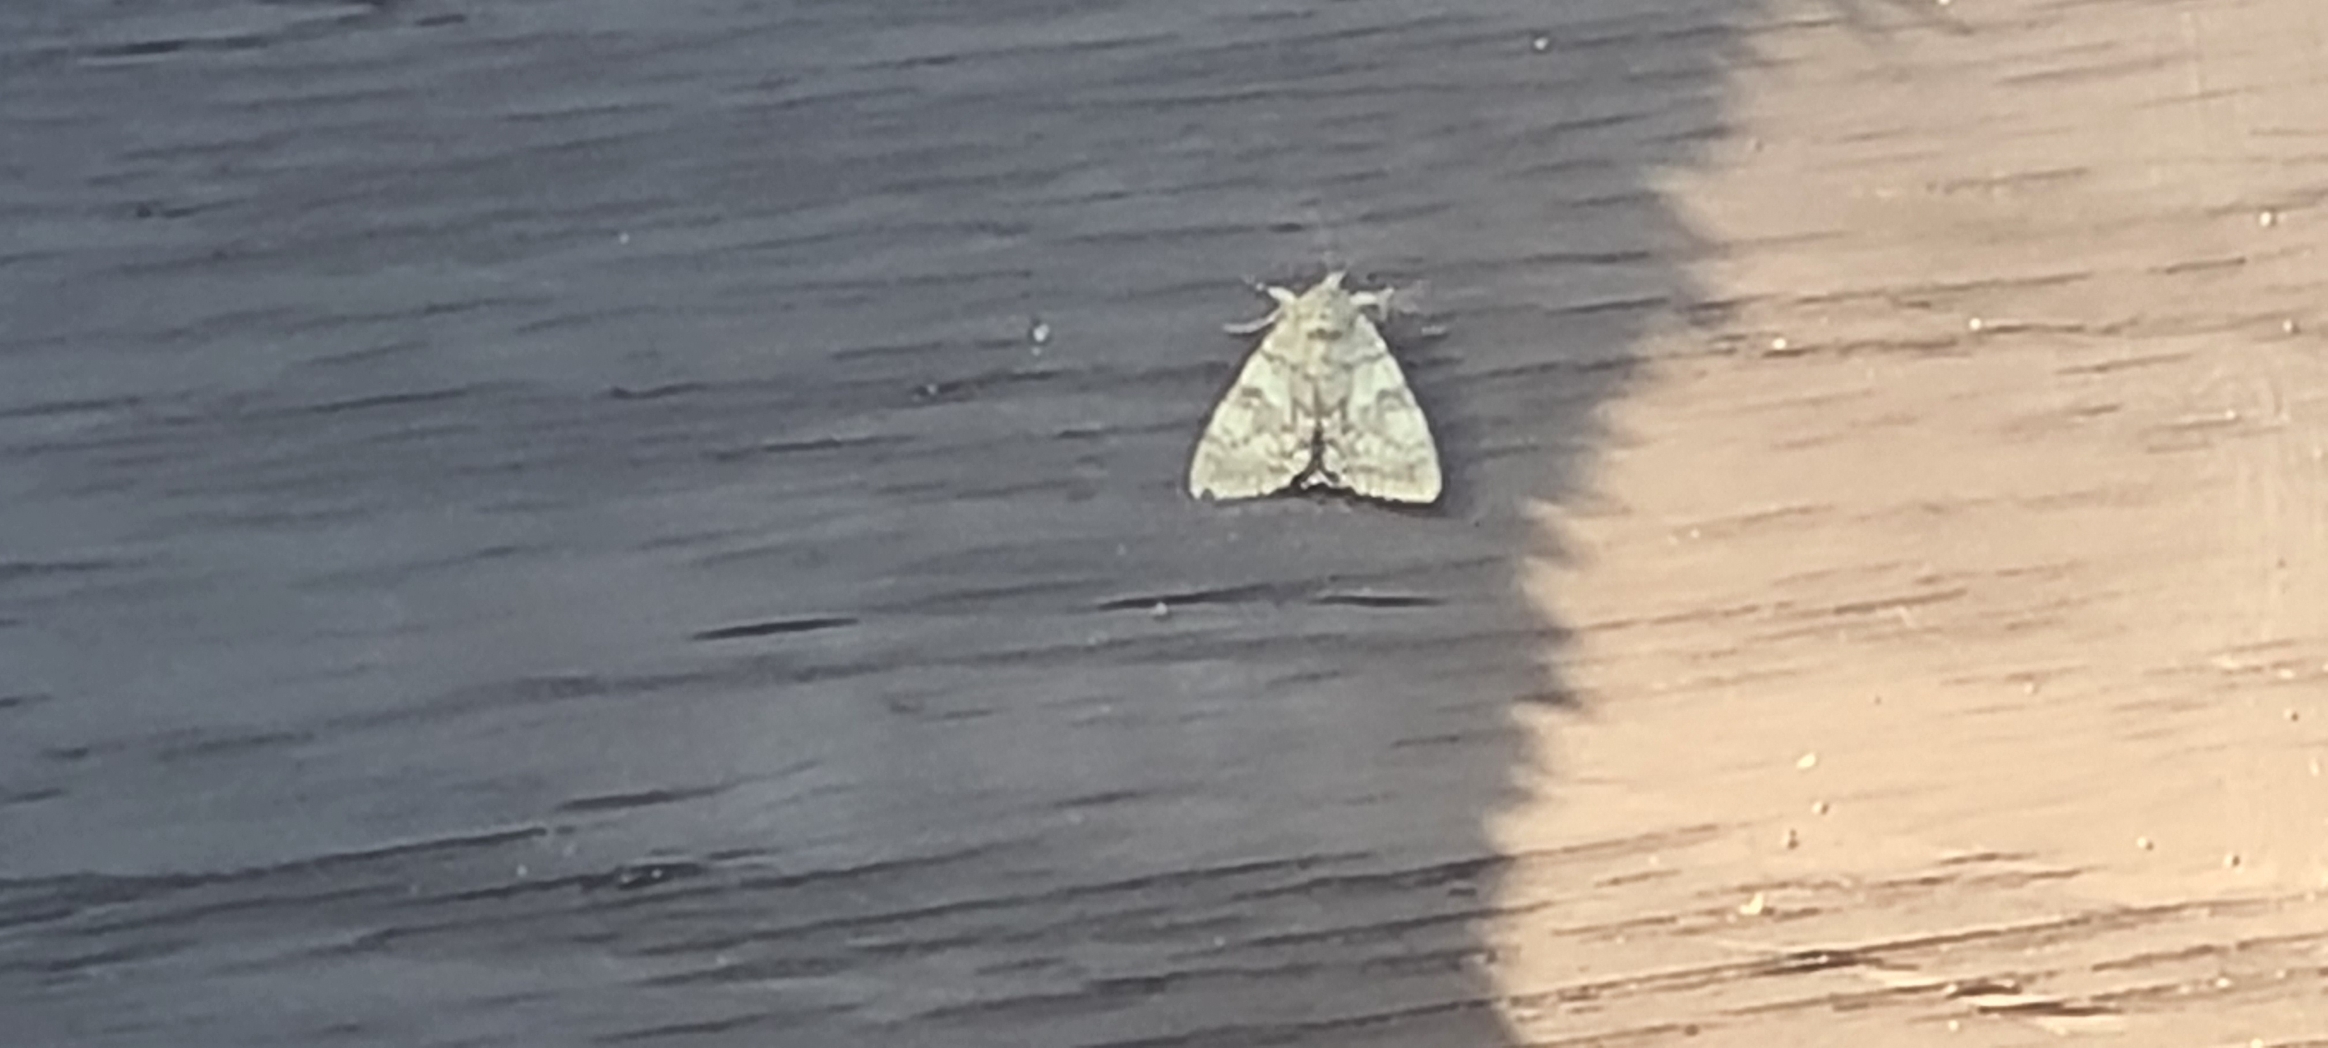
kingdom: Animalia
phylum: Arthropoda
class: Insecta
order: Lepidoptera
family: Erebidae
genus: Catocala
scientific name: Catocala nupta
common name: Rødt ordensbånd
